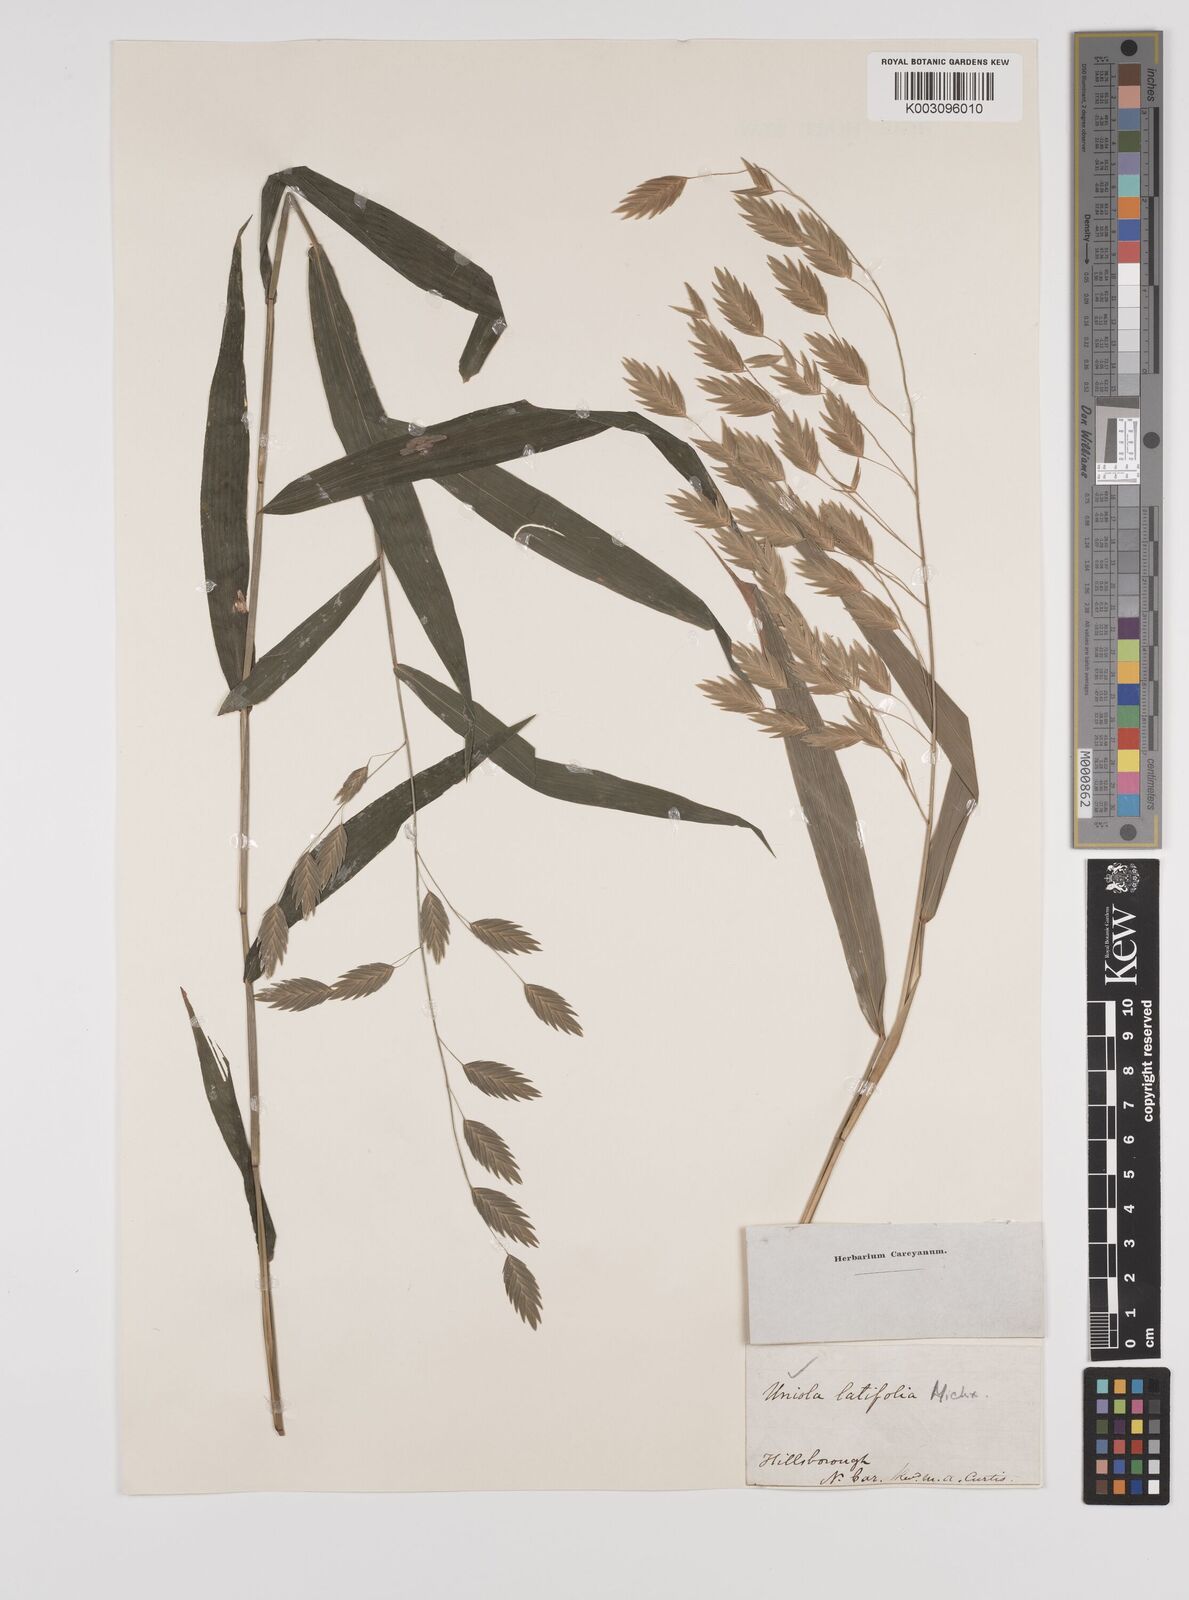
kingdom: Plantae
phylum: Tracheophyta
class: Liliopsida
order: Poales
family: Poaceae
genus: Chasmanthium
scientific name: Chasmanthium latifolium
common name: Broad-leaved chasmanthium
